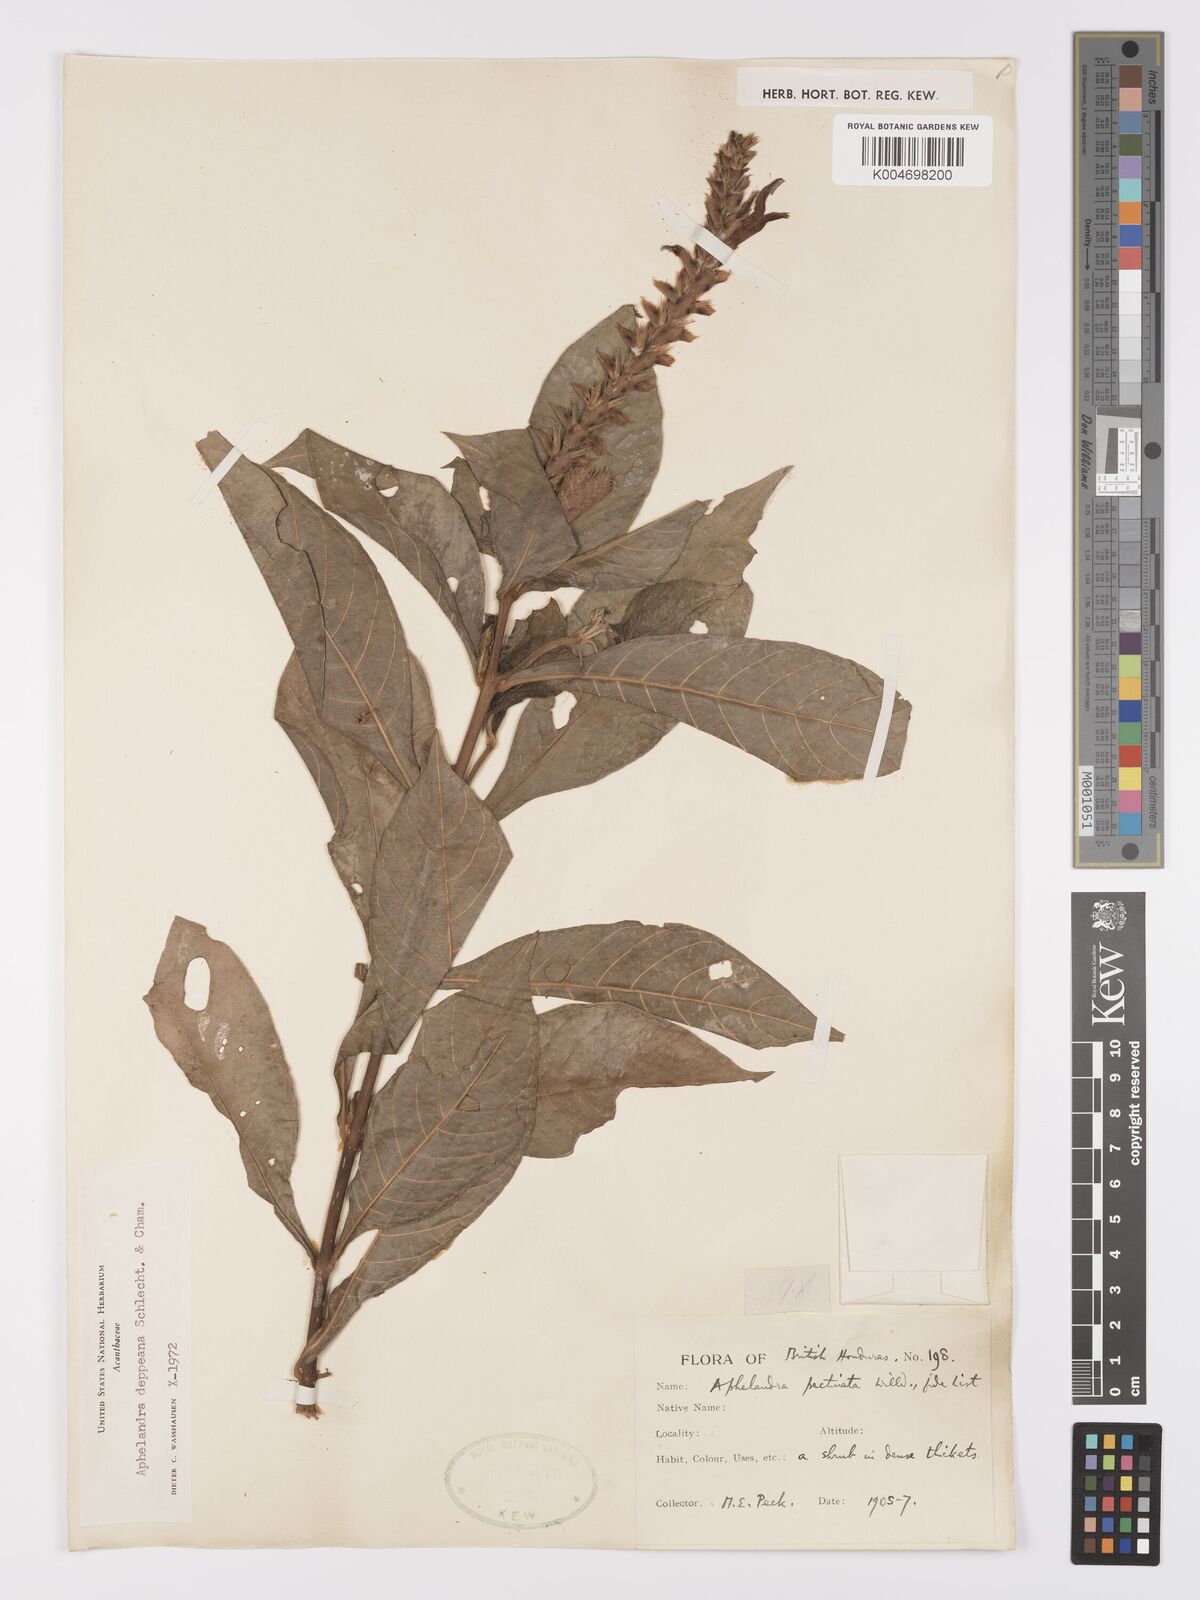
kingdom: Plantae
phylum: Tracheophyta
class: Magnoliopsida
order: Lamiales
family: Acanthaceae
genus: Aphelandra
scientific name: Aphelandra scabra
